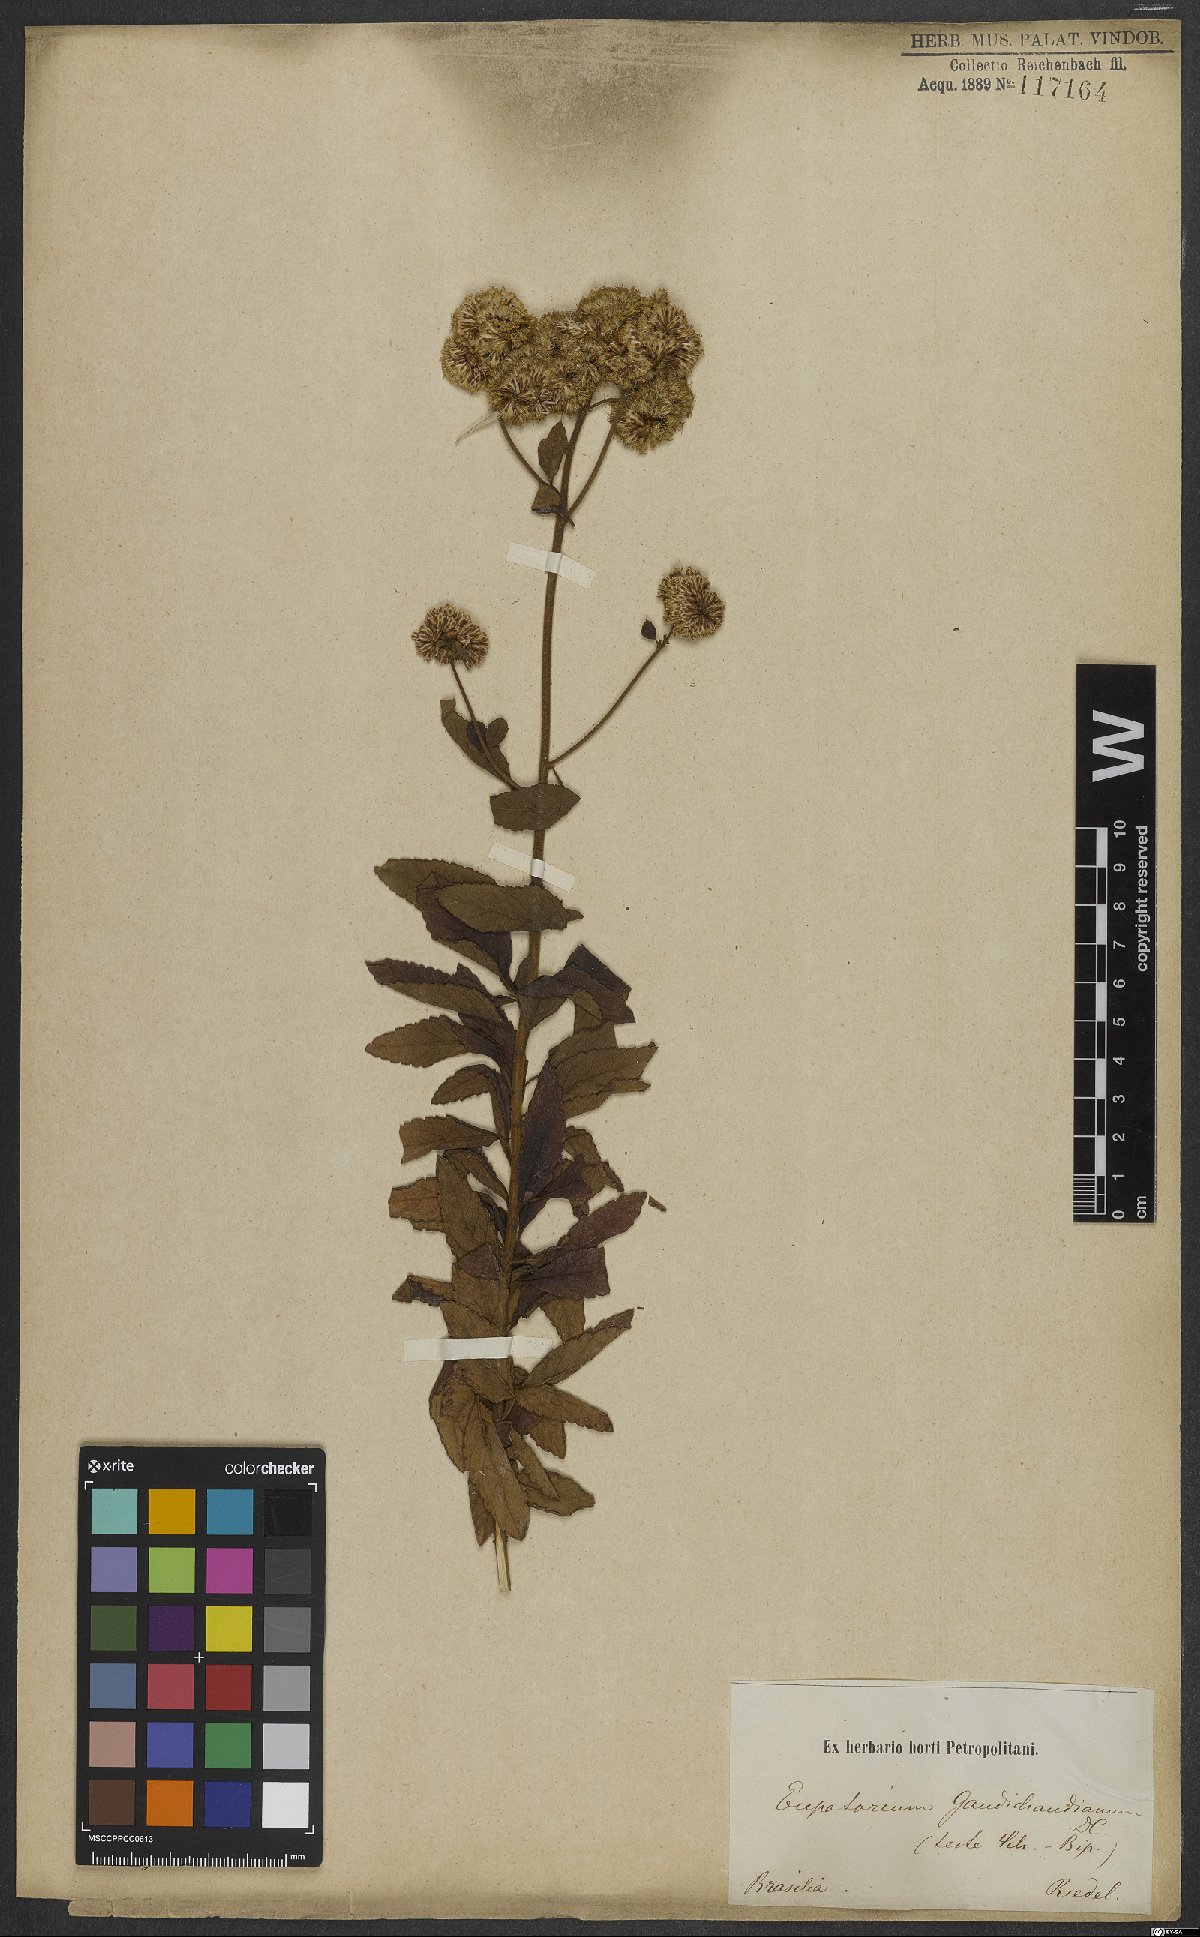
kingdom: Plantae
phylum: Tracheophyta
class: Magnoliopsida
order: Asterales
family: Asteraceae
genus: Grazielia
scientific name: Grazielia gaudichaudeana
